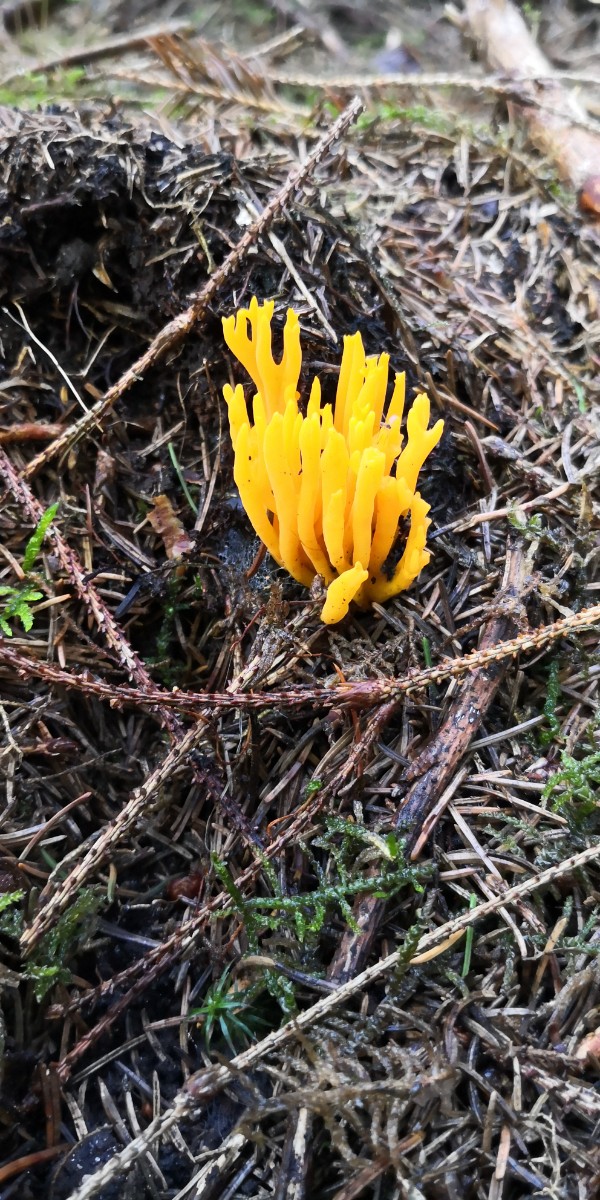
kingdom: Fungi
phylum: Basidiomycota
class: Dacrymycetes
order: Dacrymycetales
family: Dacrymycetaceae
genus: Calocera
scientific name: Calocera viscosa
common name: almindelig guldgaffel
